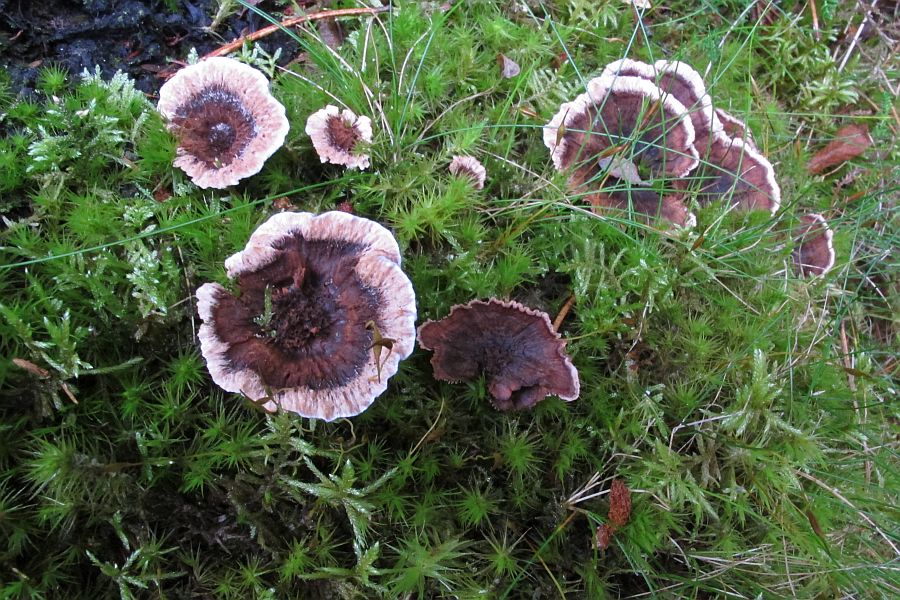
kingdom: Fungi
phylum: Basidiomycota
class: Agaricomycetes
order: Thelephorales
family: Bankeraceae
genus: Hydnellum
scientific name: Hydnellum concrescens
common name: bæltet korkpigsvamp
